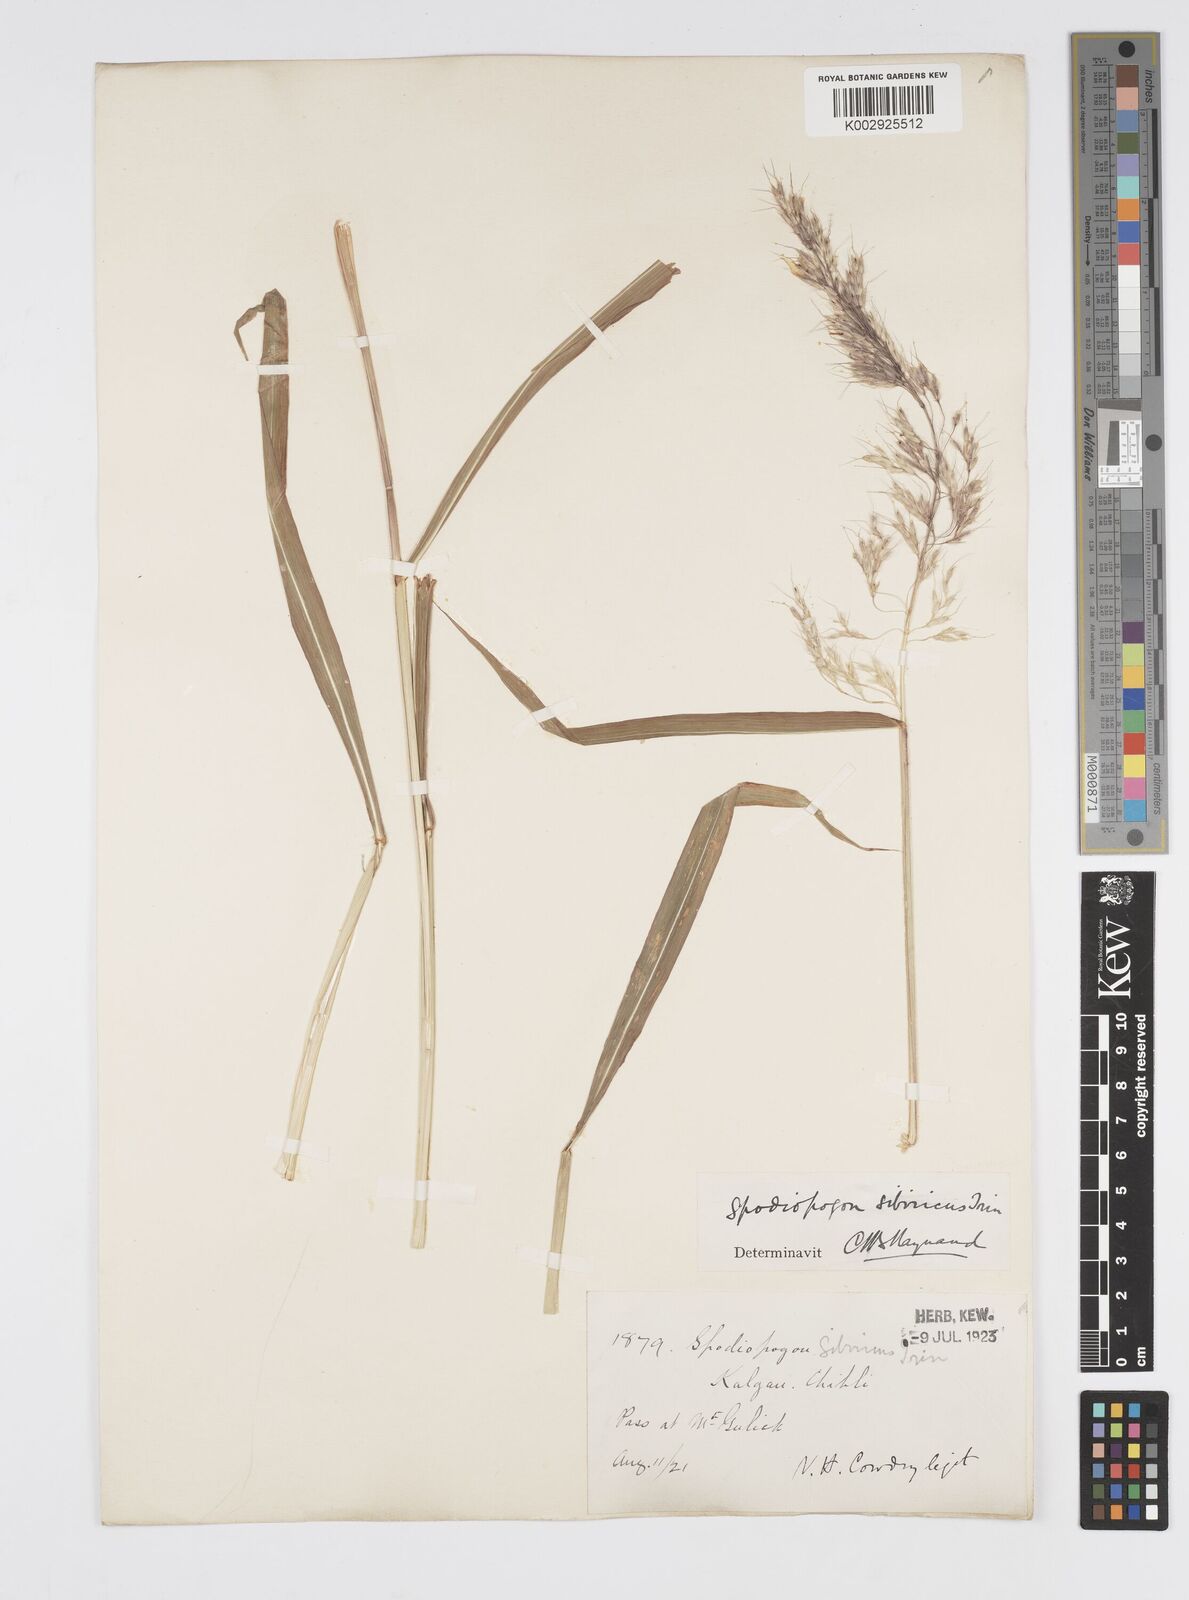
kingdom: Plantae
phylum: Tracheophyta
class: Liliopsida
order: Poales
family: Poaceae
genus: Spodiopogon
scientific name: Spodiopogon sibiricus
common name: Siberian graybeard
